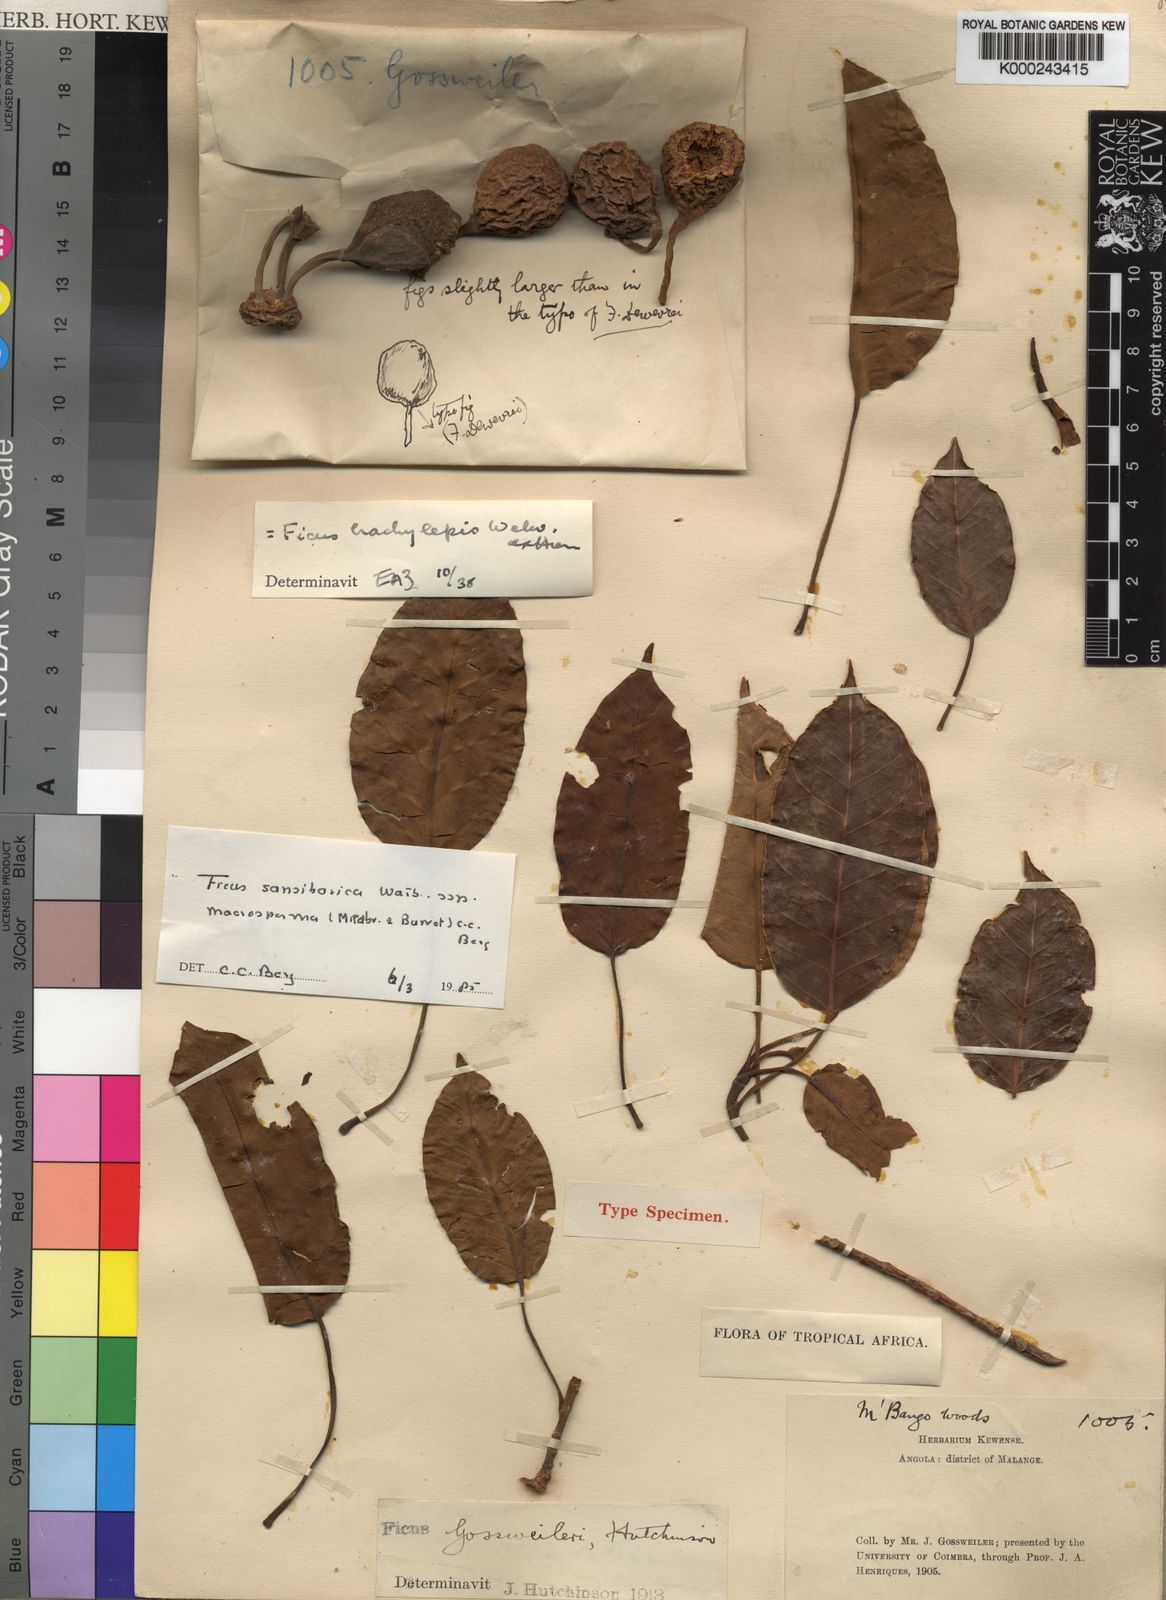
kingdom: Plantae
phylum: Tracheophyta
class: Magnoliopsida
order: Rosales
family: Moraceae
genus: Ficus
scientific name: Ficus sansibarica
